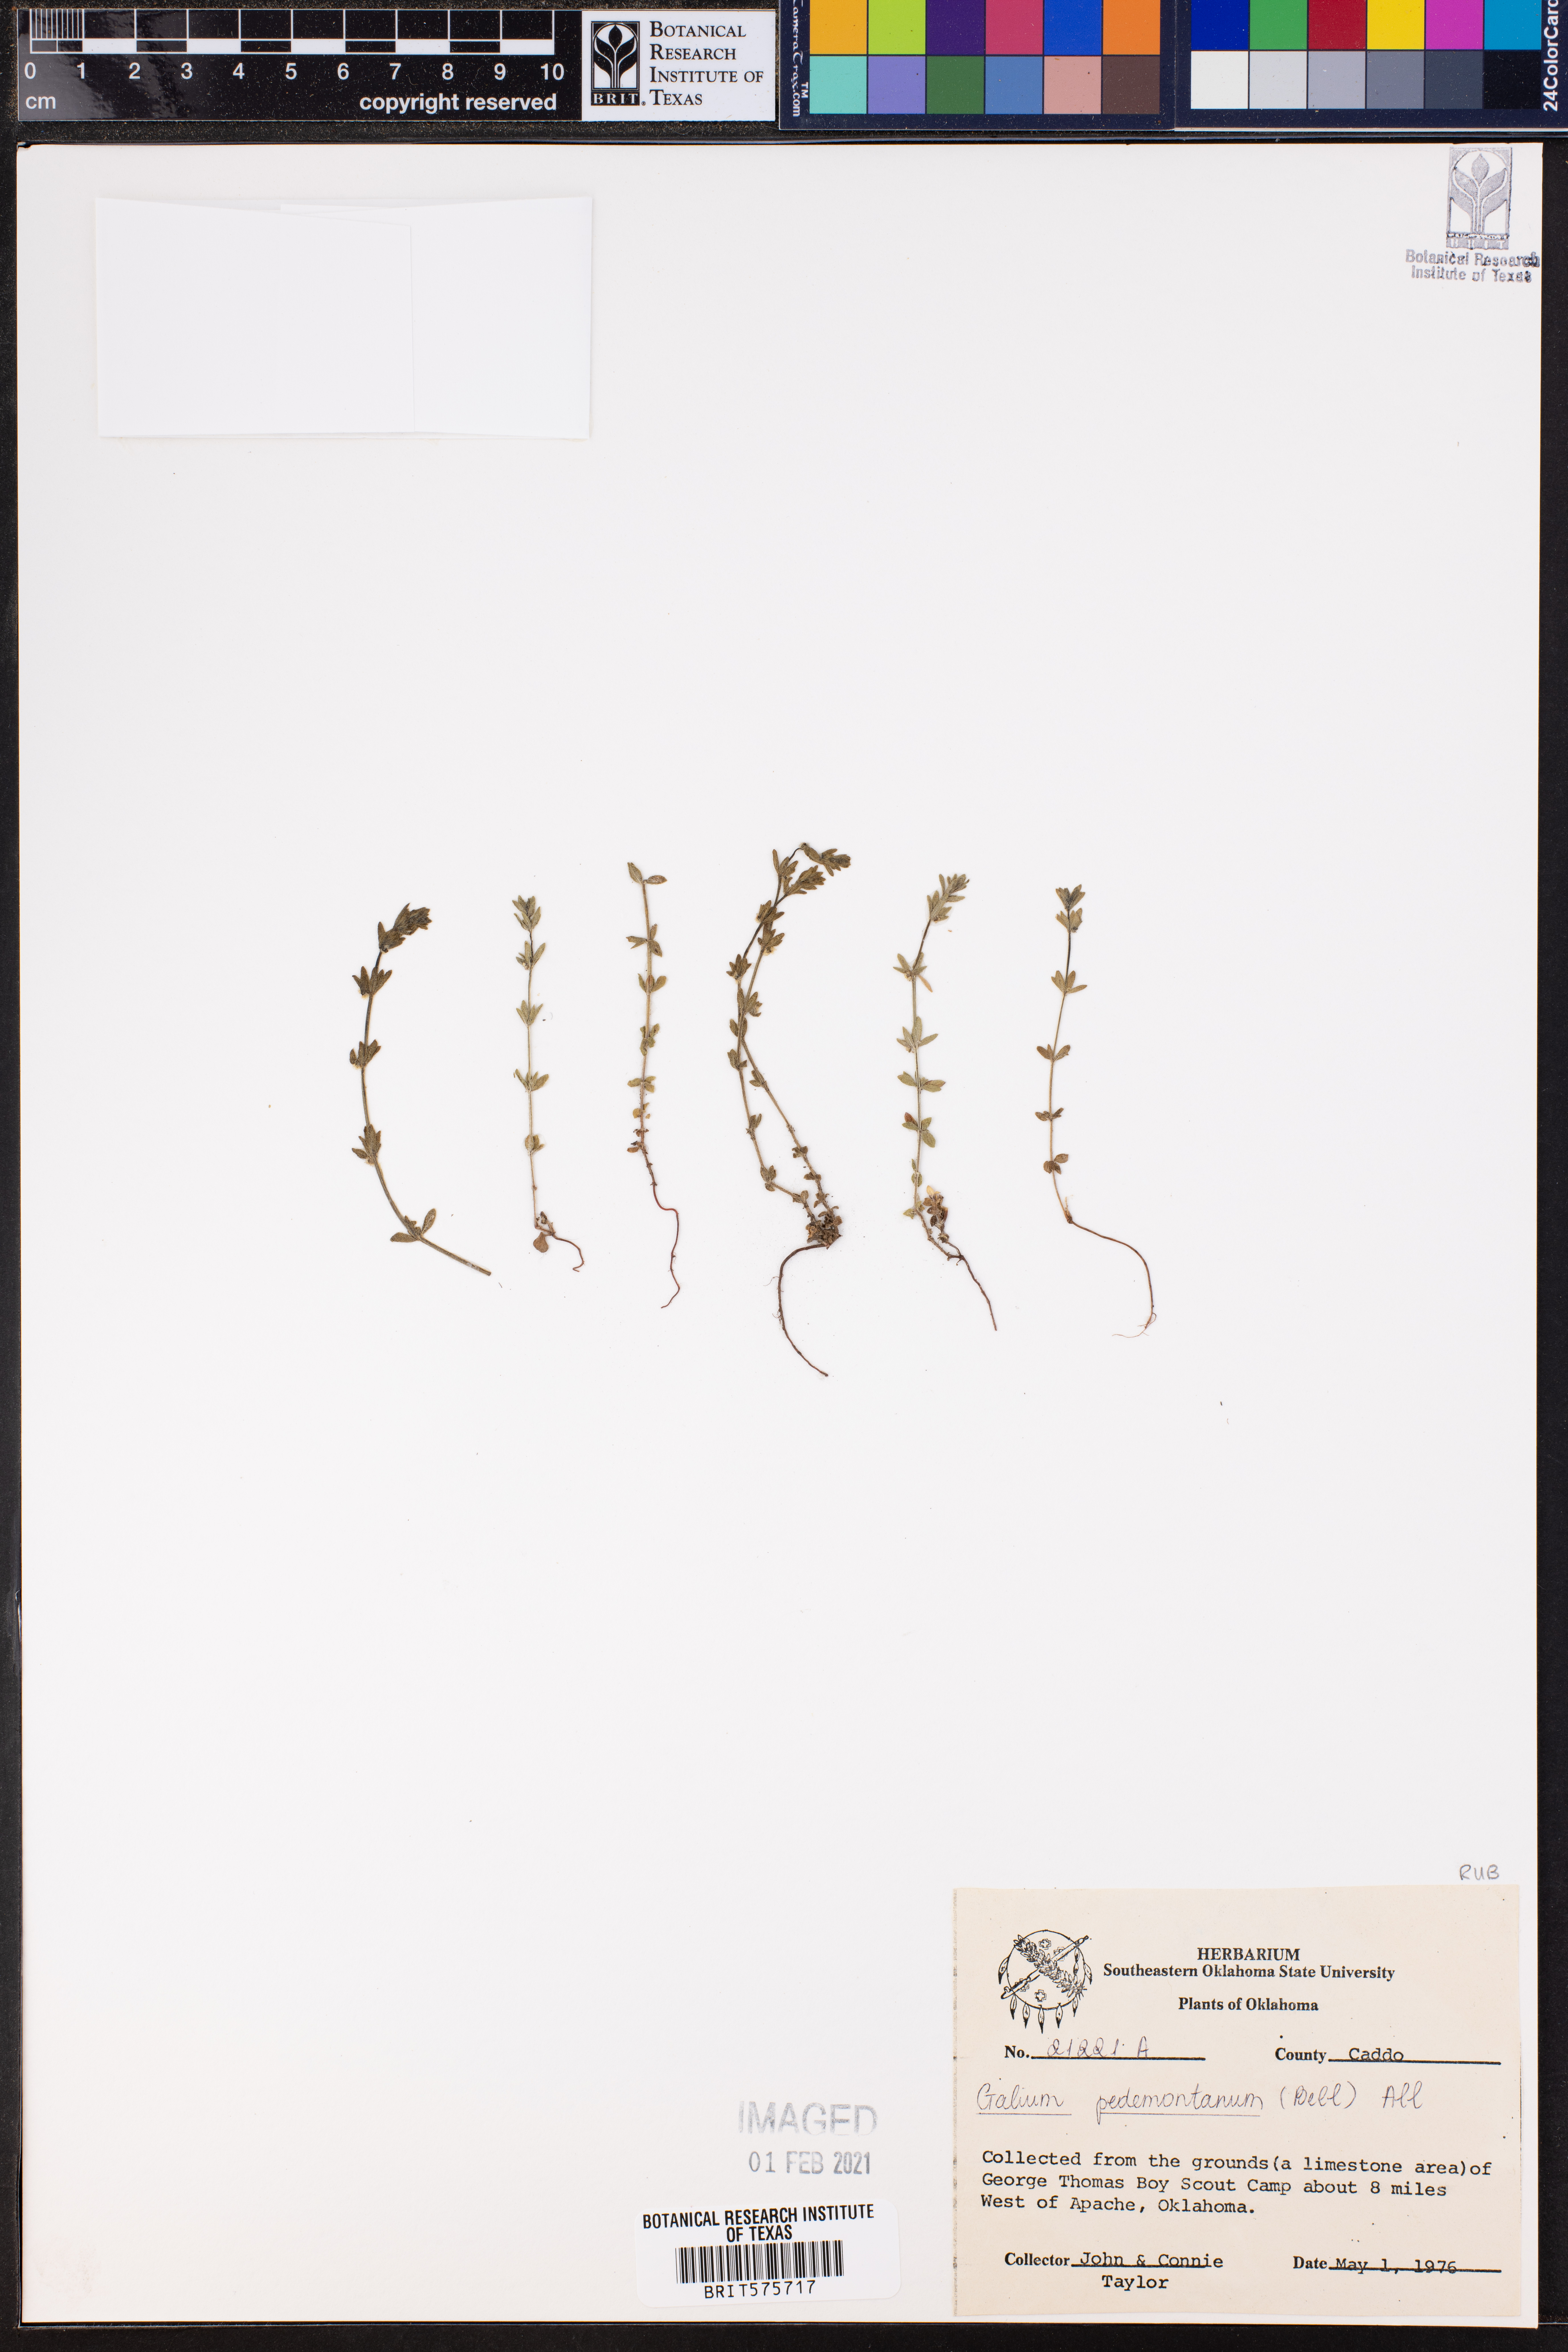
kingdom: Plantae
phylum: Tracheophyta
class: Magnoliopsida
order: Gentianales
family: Rubiaceae
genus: Cruciata
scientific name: Cruciata pedemontana
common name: Piedmont bedstraw
